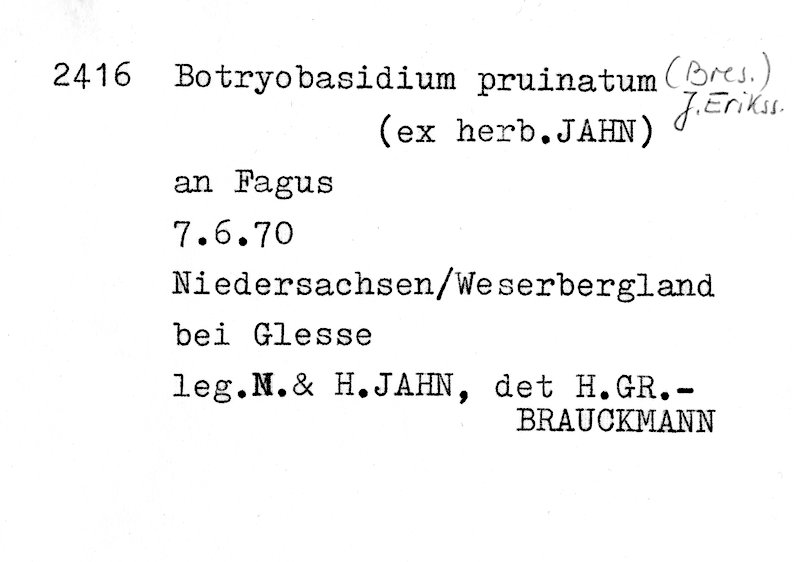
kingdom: Plantae
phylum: Tracheophyta
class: Magnoliopsida
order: Fagales
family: Fagaceae
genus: Fagus
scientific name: Fagus sylvatica
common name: Beech
